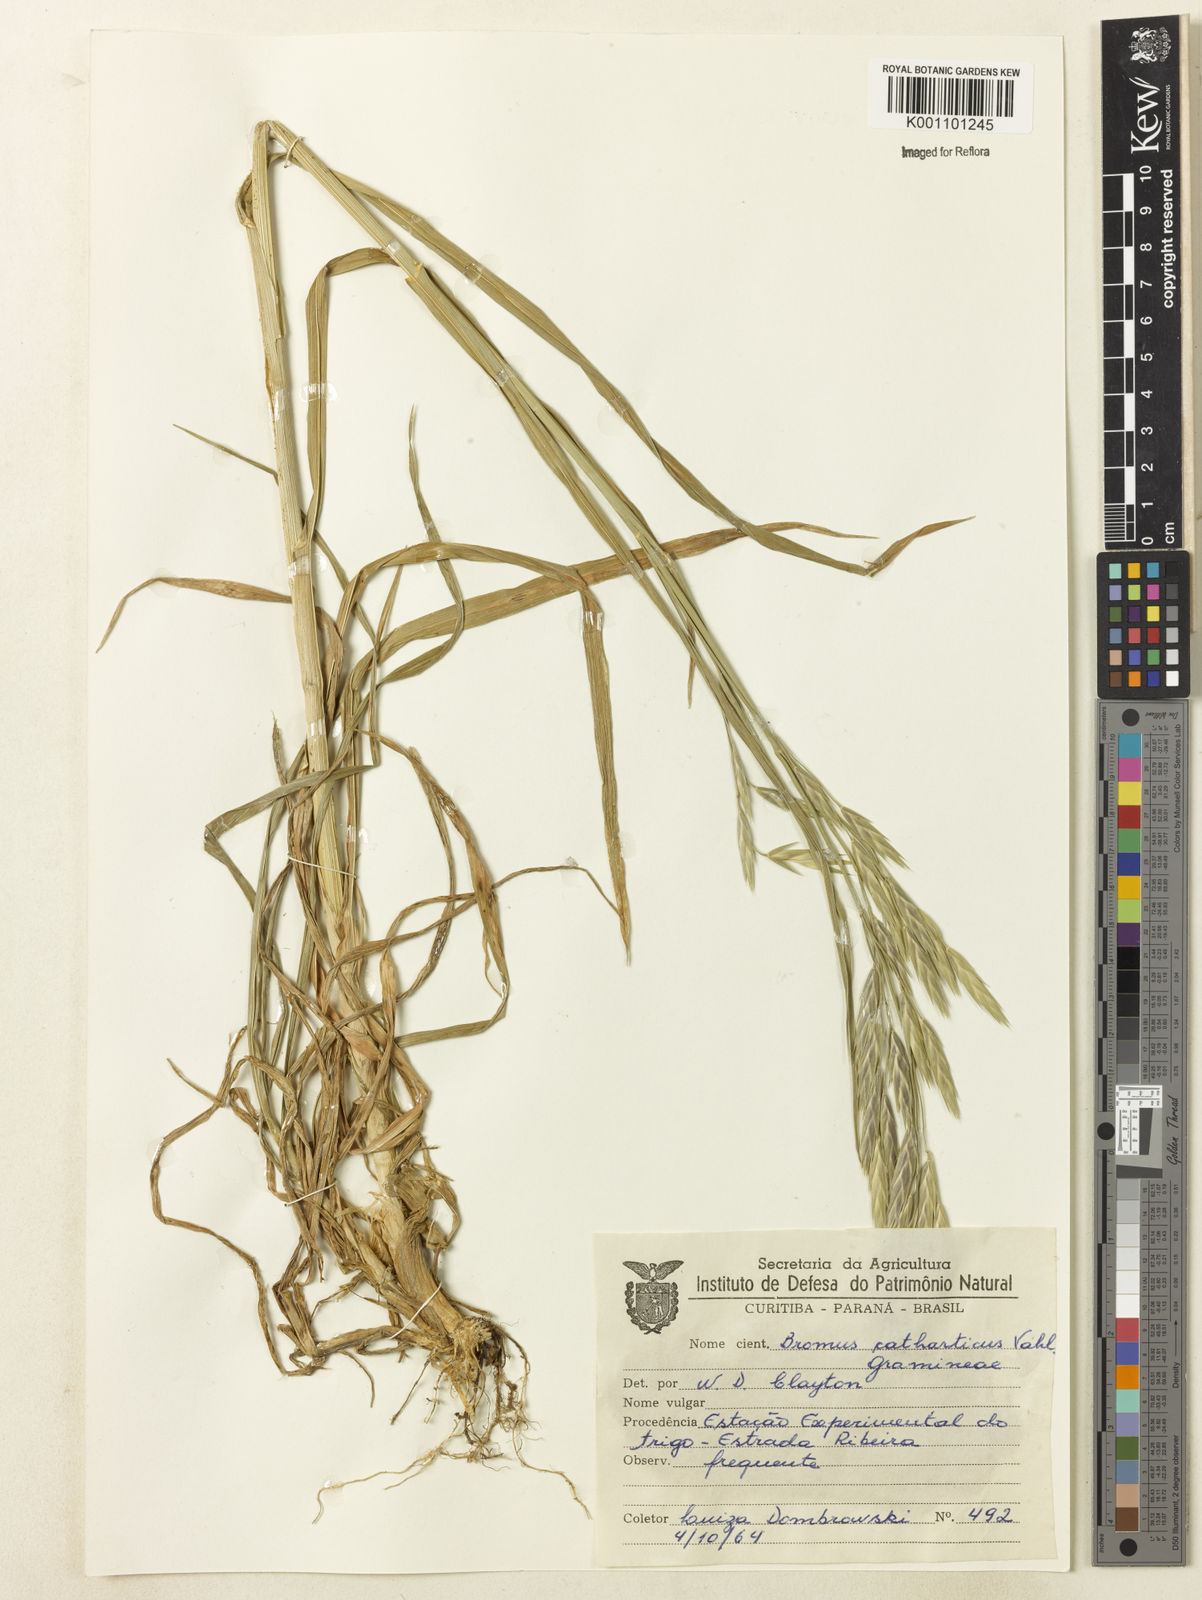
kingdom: Plantae
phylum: Tracheophyta
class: Liliopsida
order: Poales
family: Poaceae
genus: Bromus
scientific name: Bromus catharticus
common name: Rescuegrass
